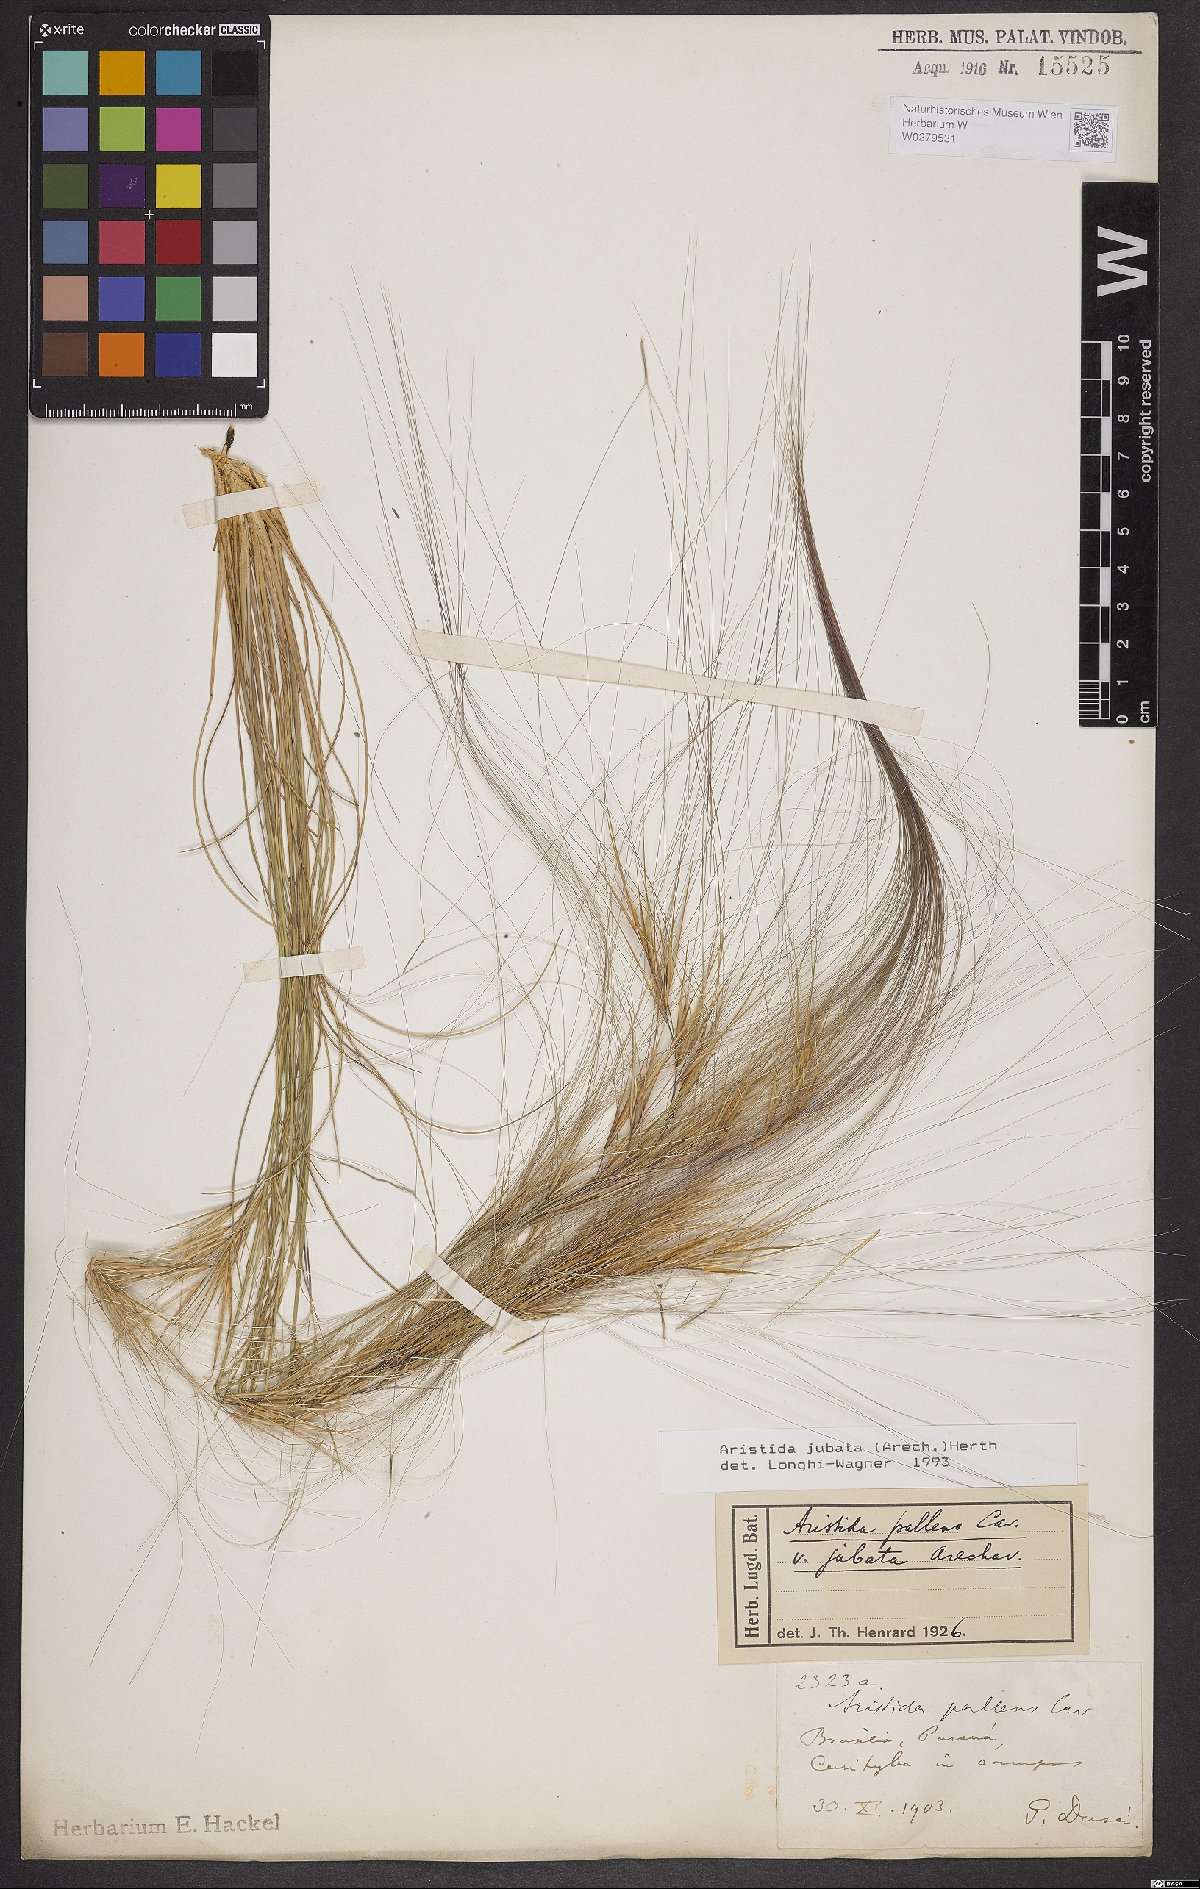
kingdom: Plantae
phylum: Tracheophyta
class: Liliopsida
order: Poales
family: Poaceae
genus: Aristida
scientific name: Aristida jubata
